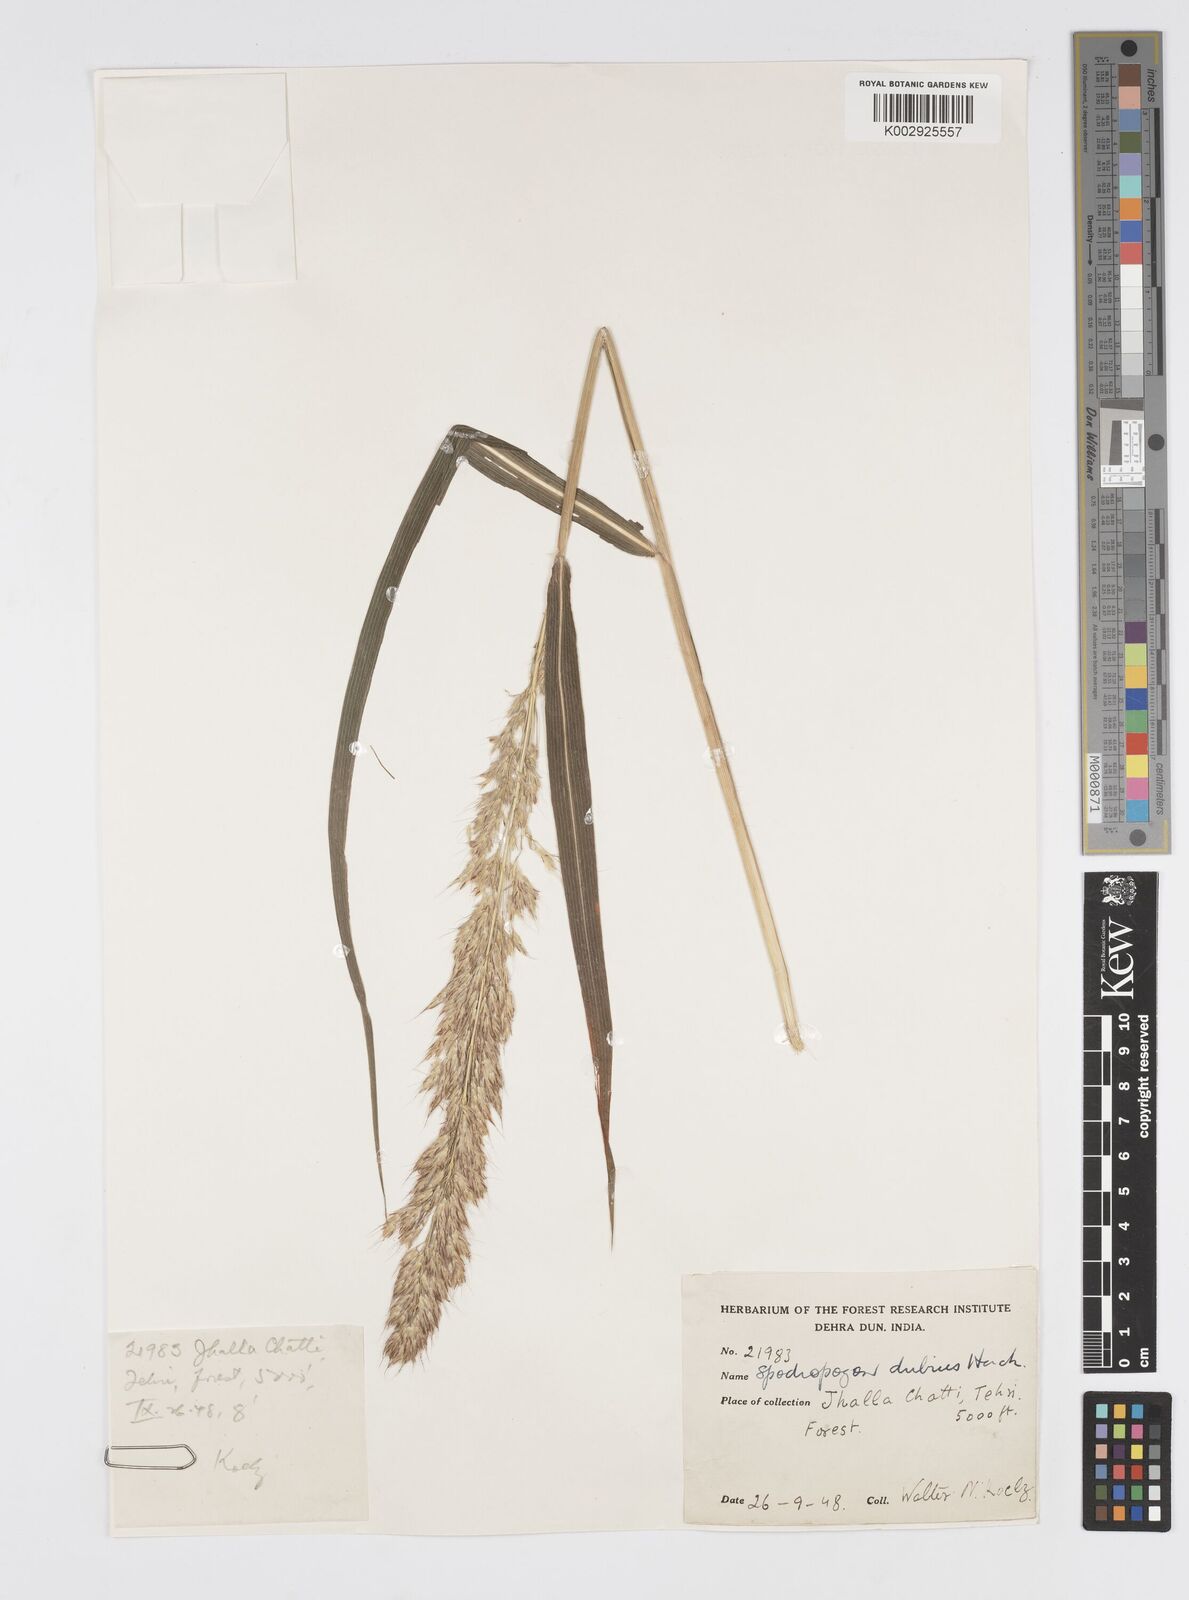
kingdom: Plantae
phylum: Tracheophyta
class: Liliopsida
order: Poales
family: Poaceae
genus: Spodiopogon
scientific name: Spodiopogon dubius
